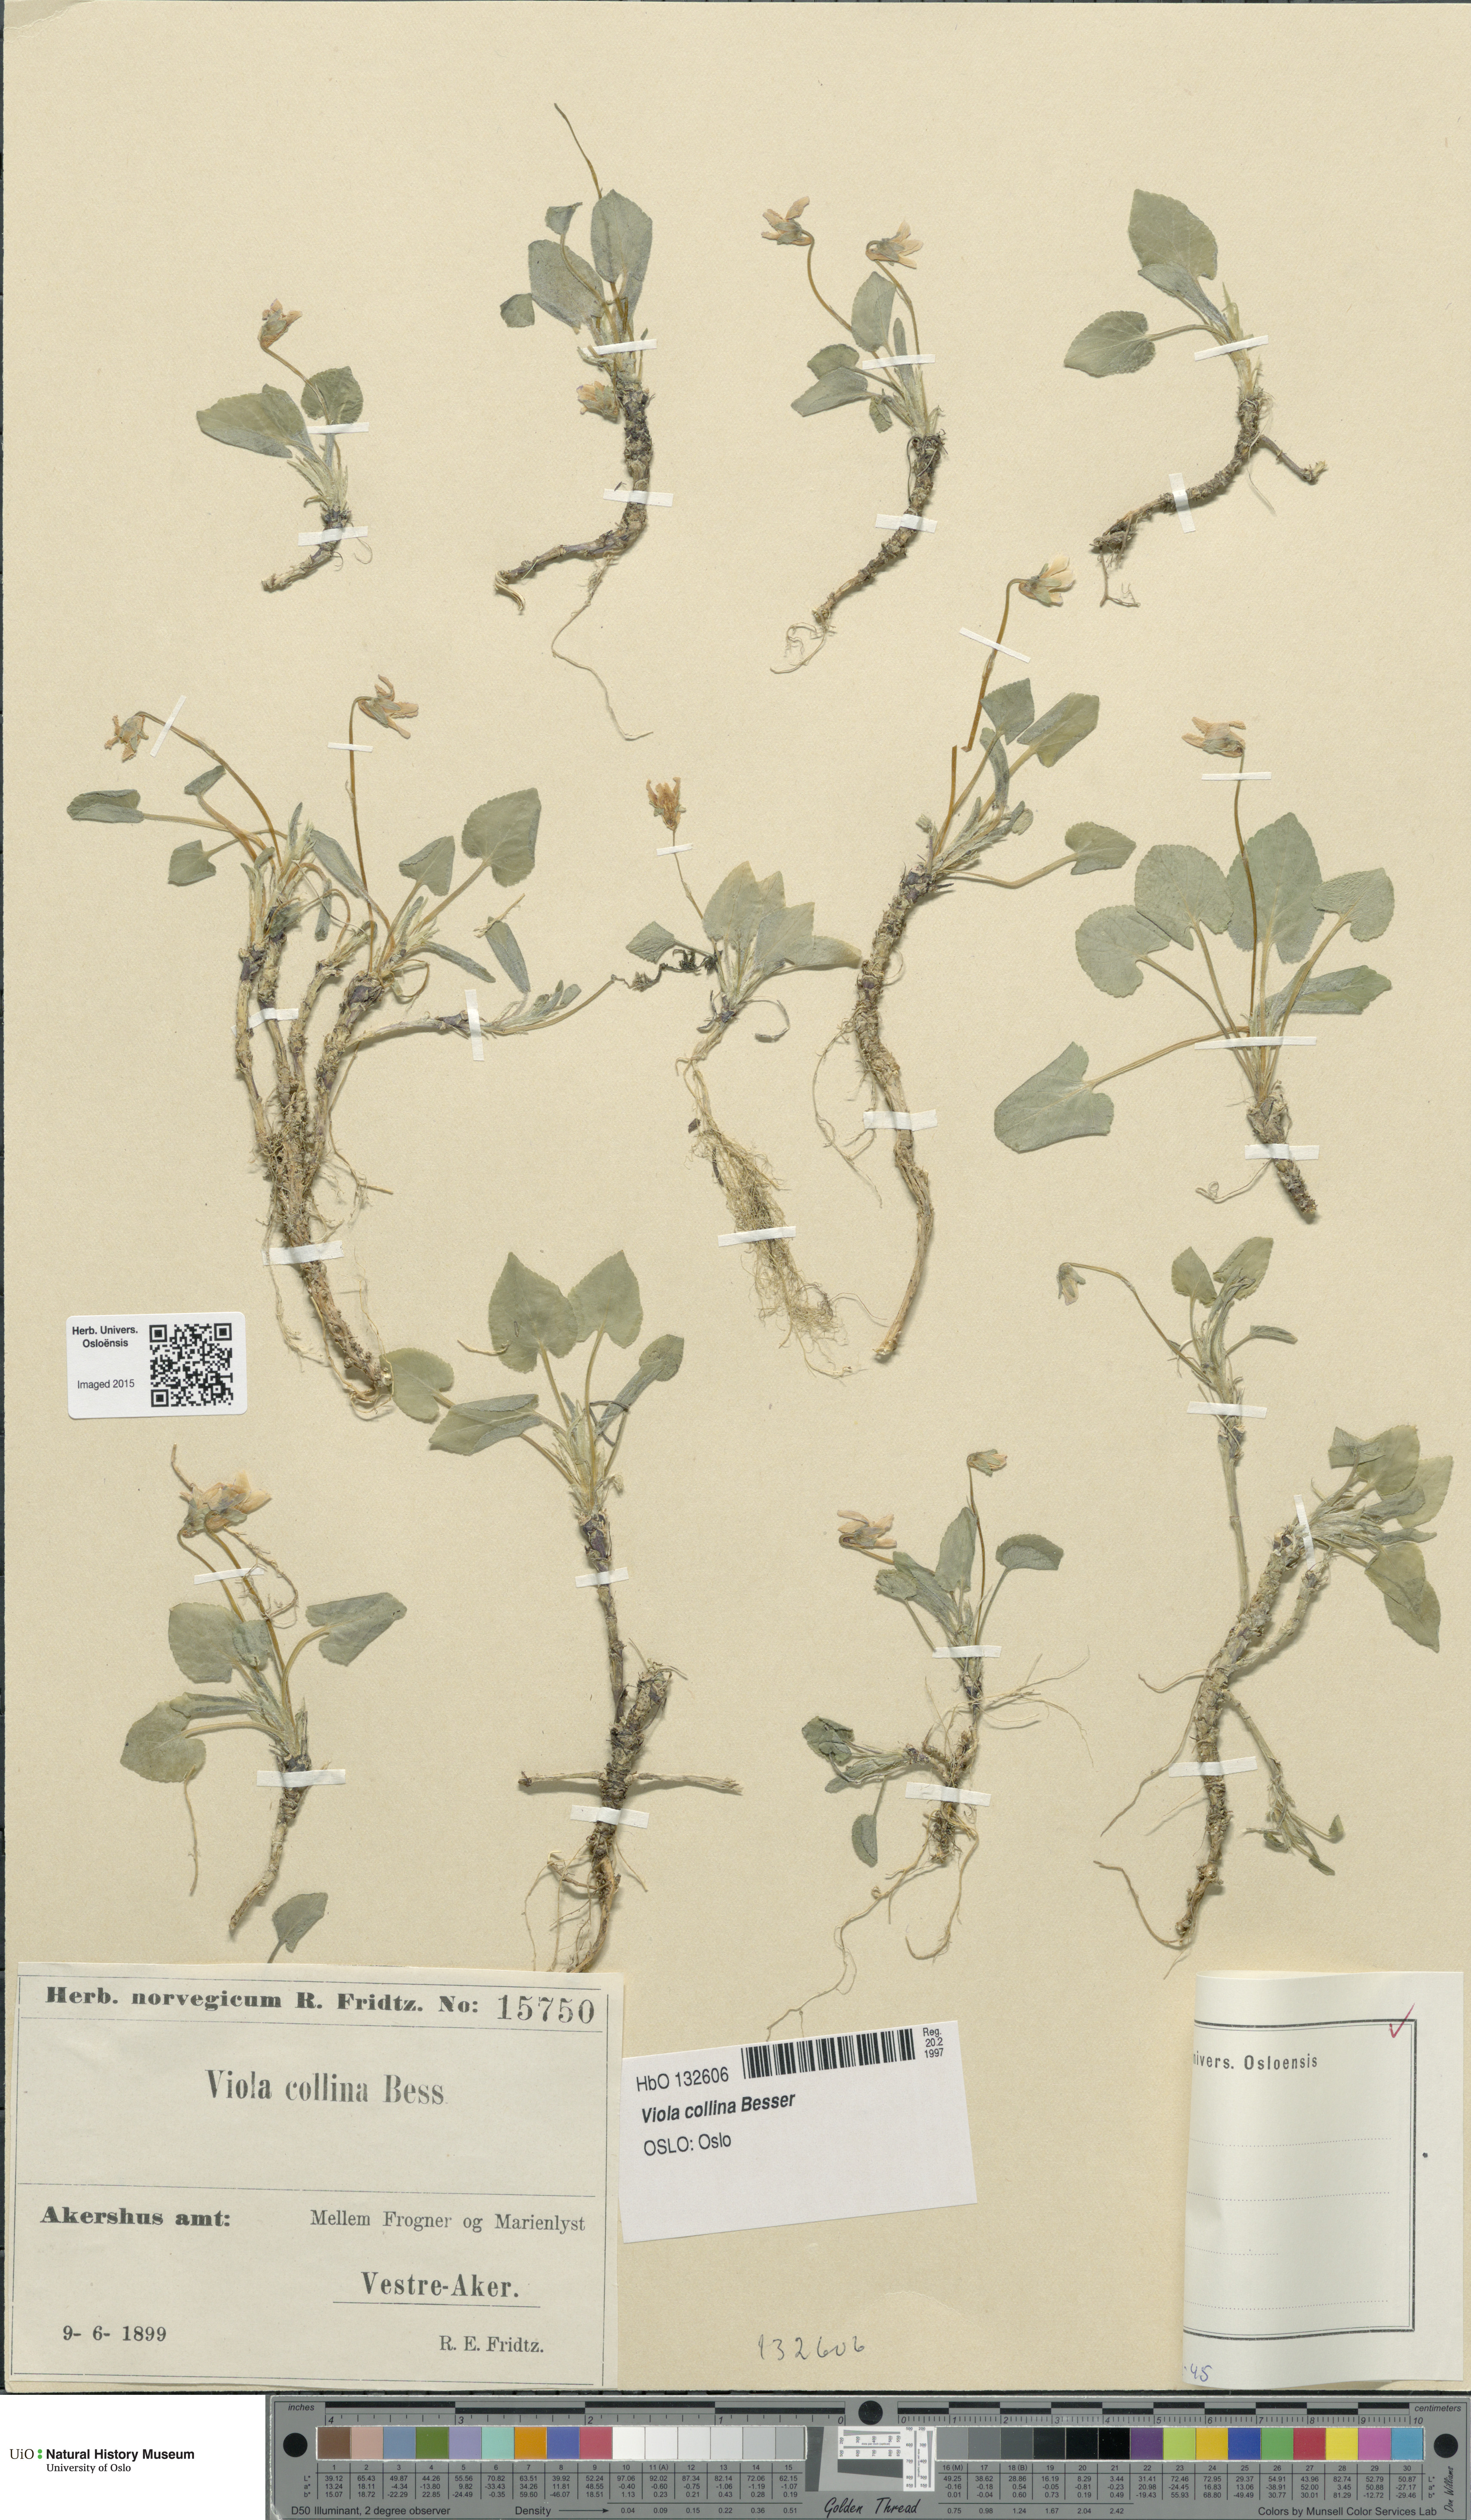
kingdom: Plantae
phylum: Tracheophyta
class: Magnoliopsida
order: Malpighiales
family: Violaceae
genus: Viola
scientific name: Viola collina
